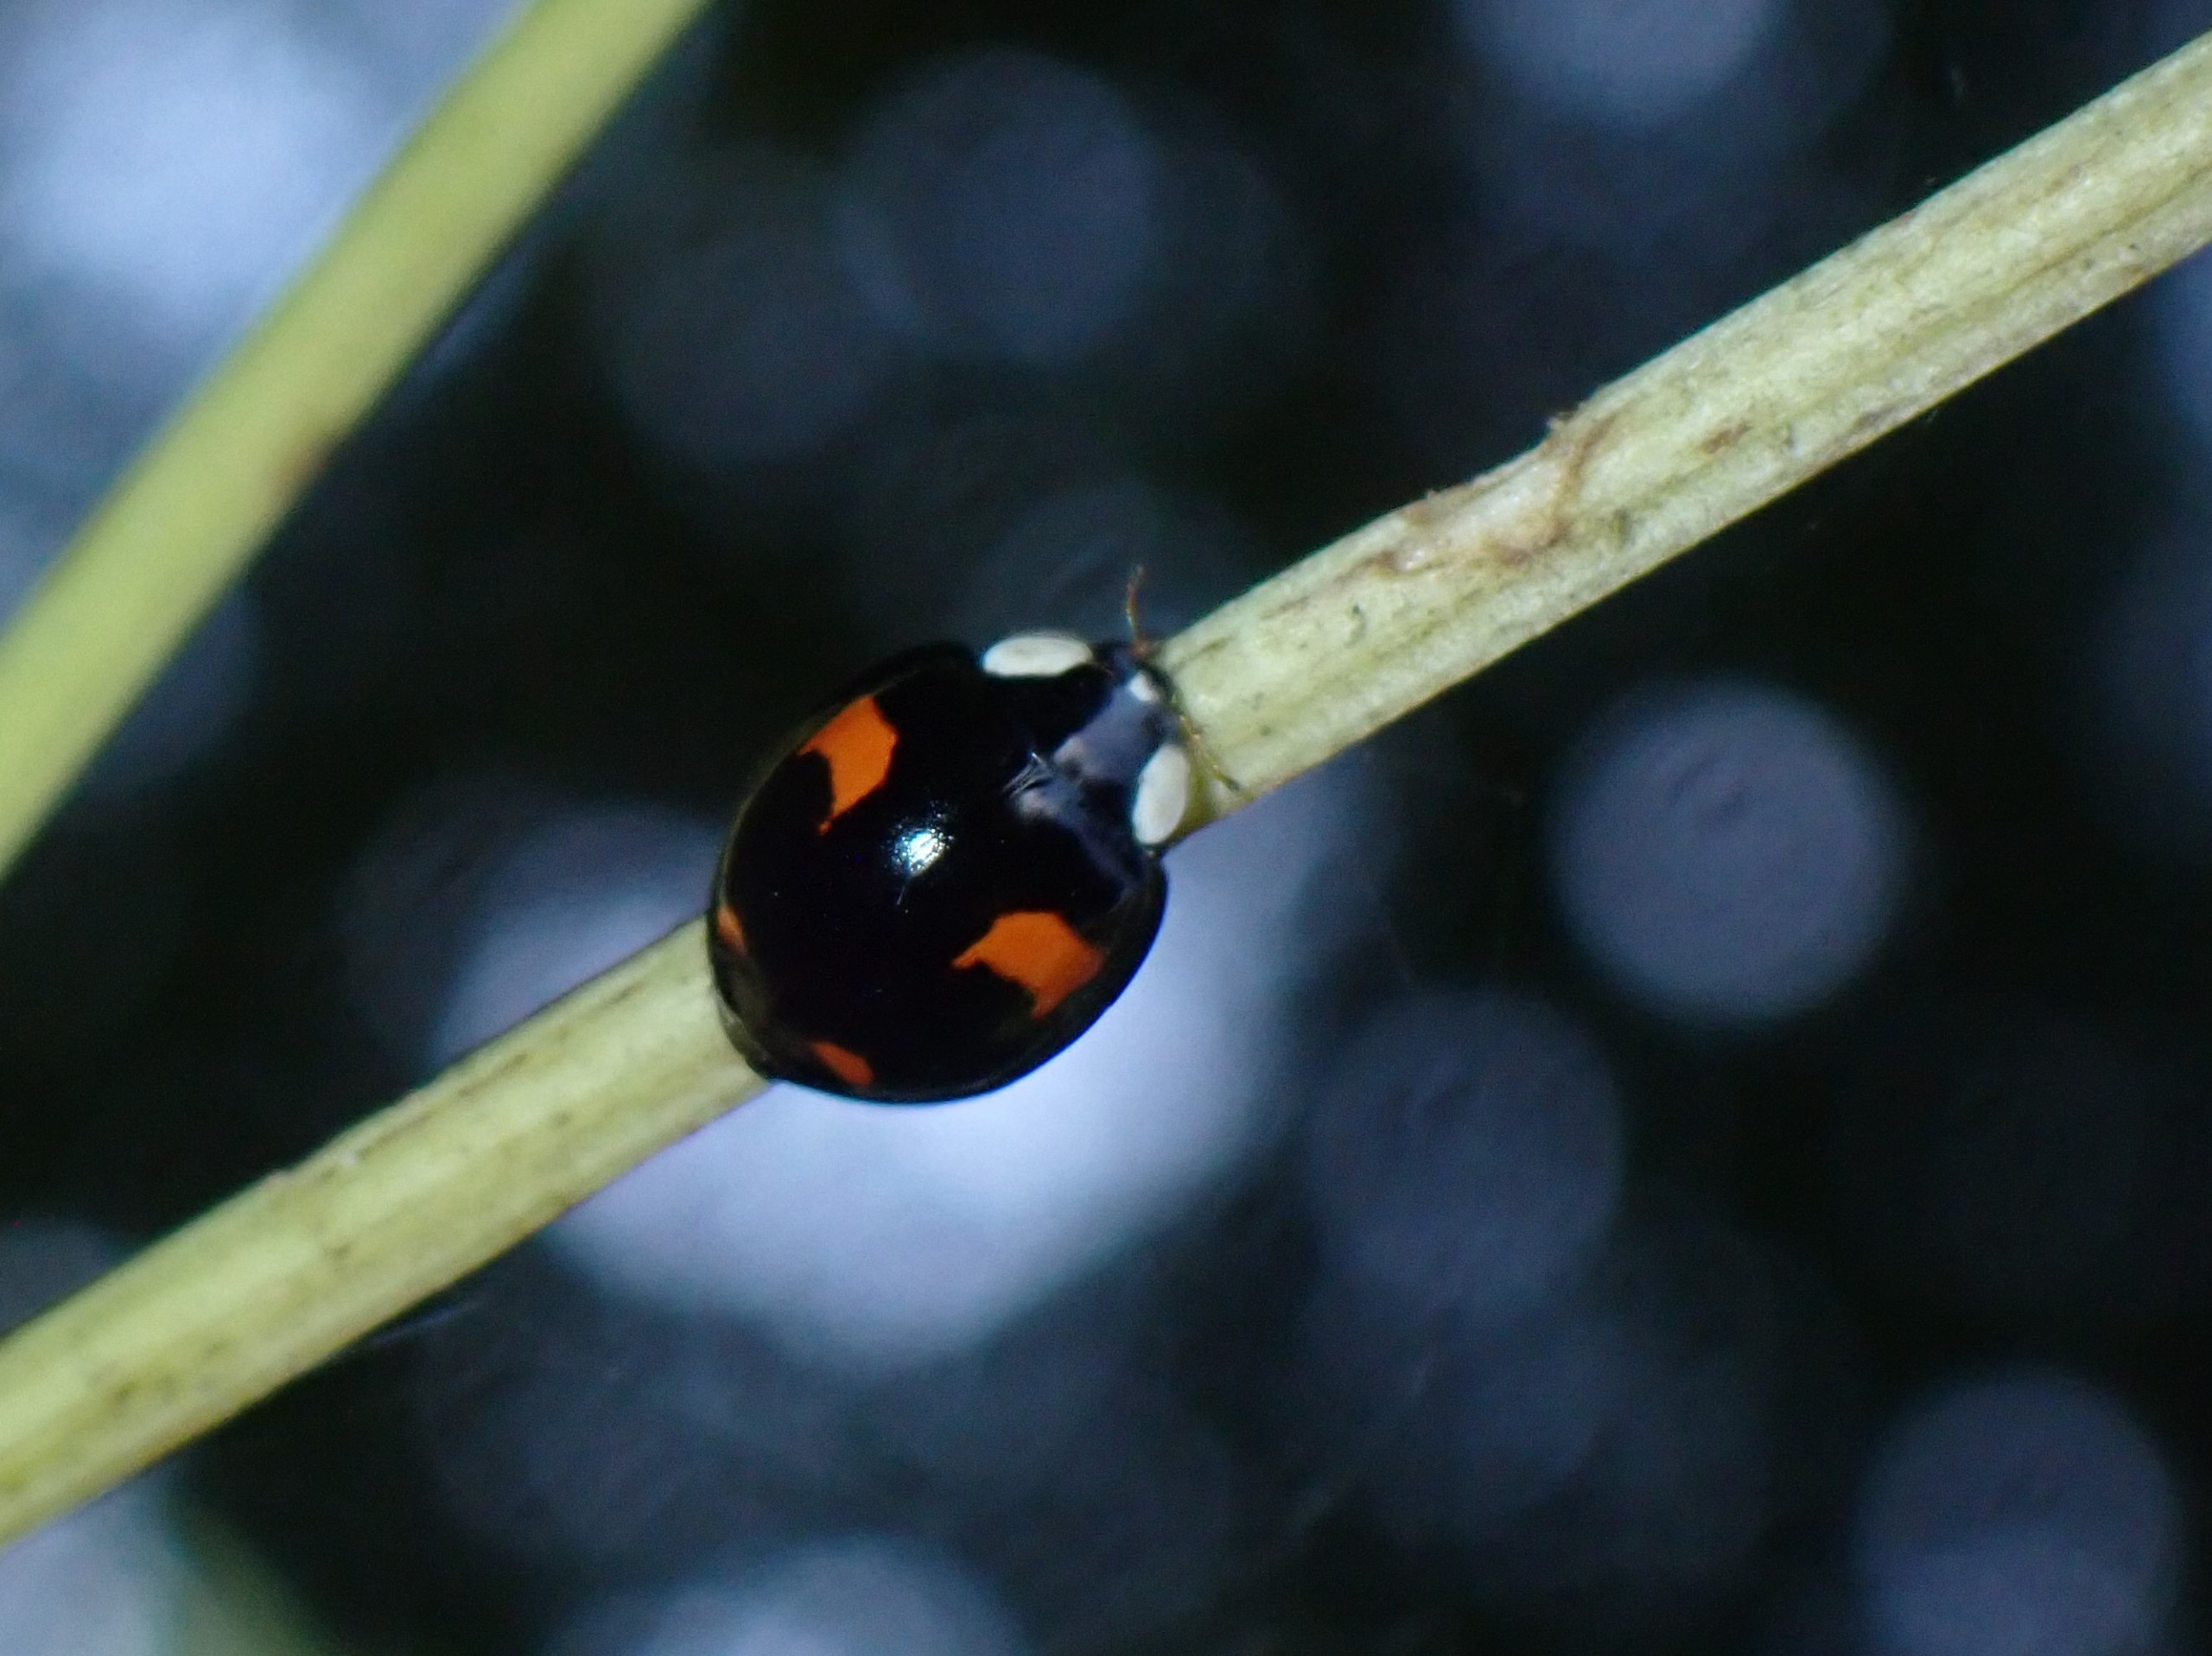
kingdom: Animalia
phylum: Arthropoda
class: Insecta
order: Coleoptera
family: Coccinellidae
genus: Harmonia
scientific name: Harmonia axyridis
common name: Harlekinmariehøne
